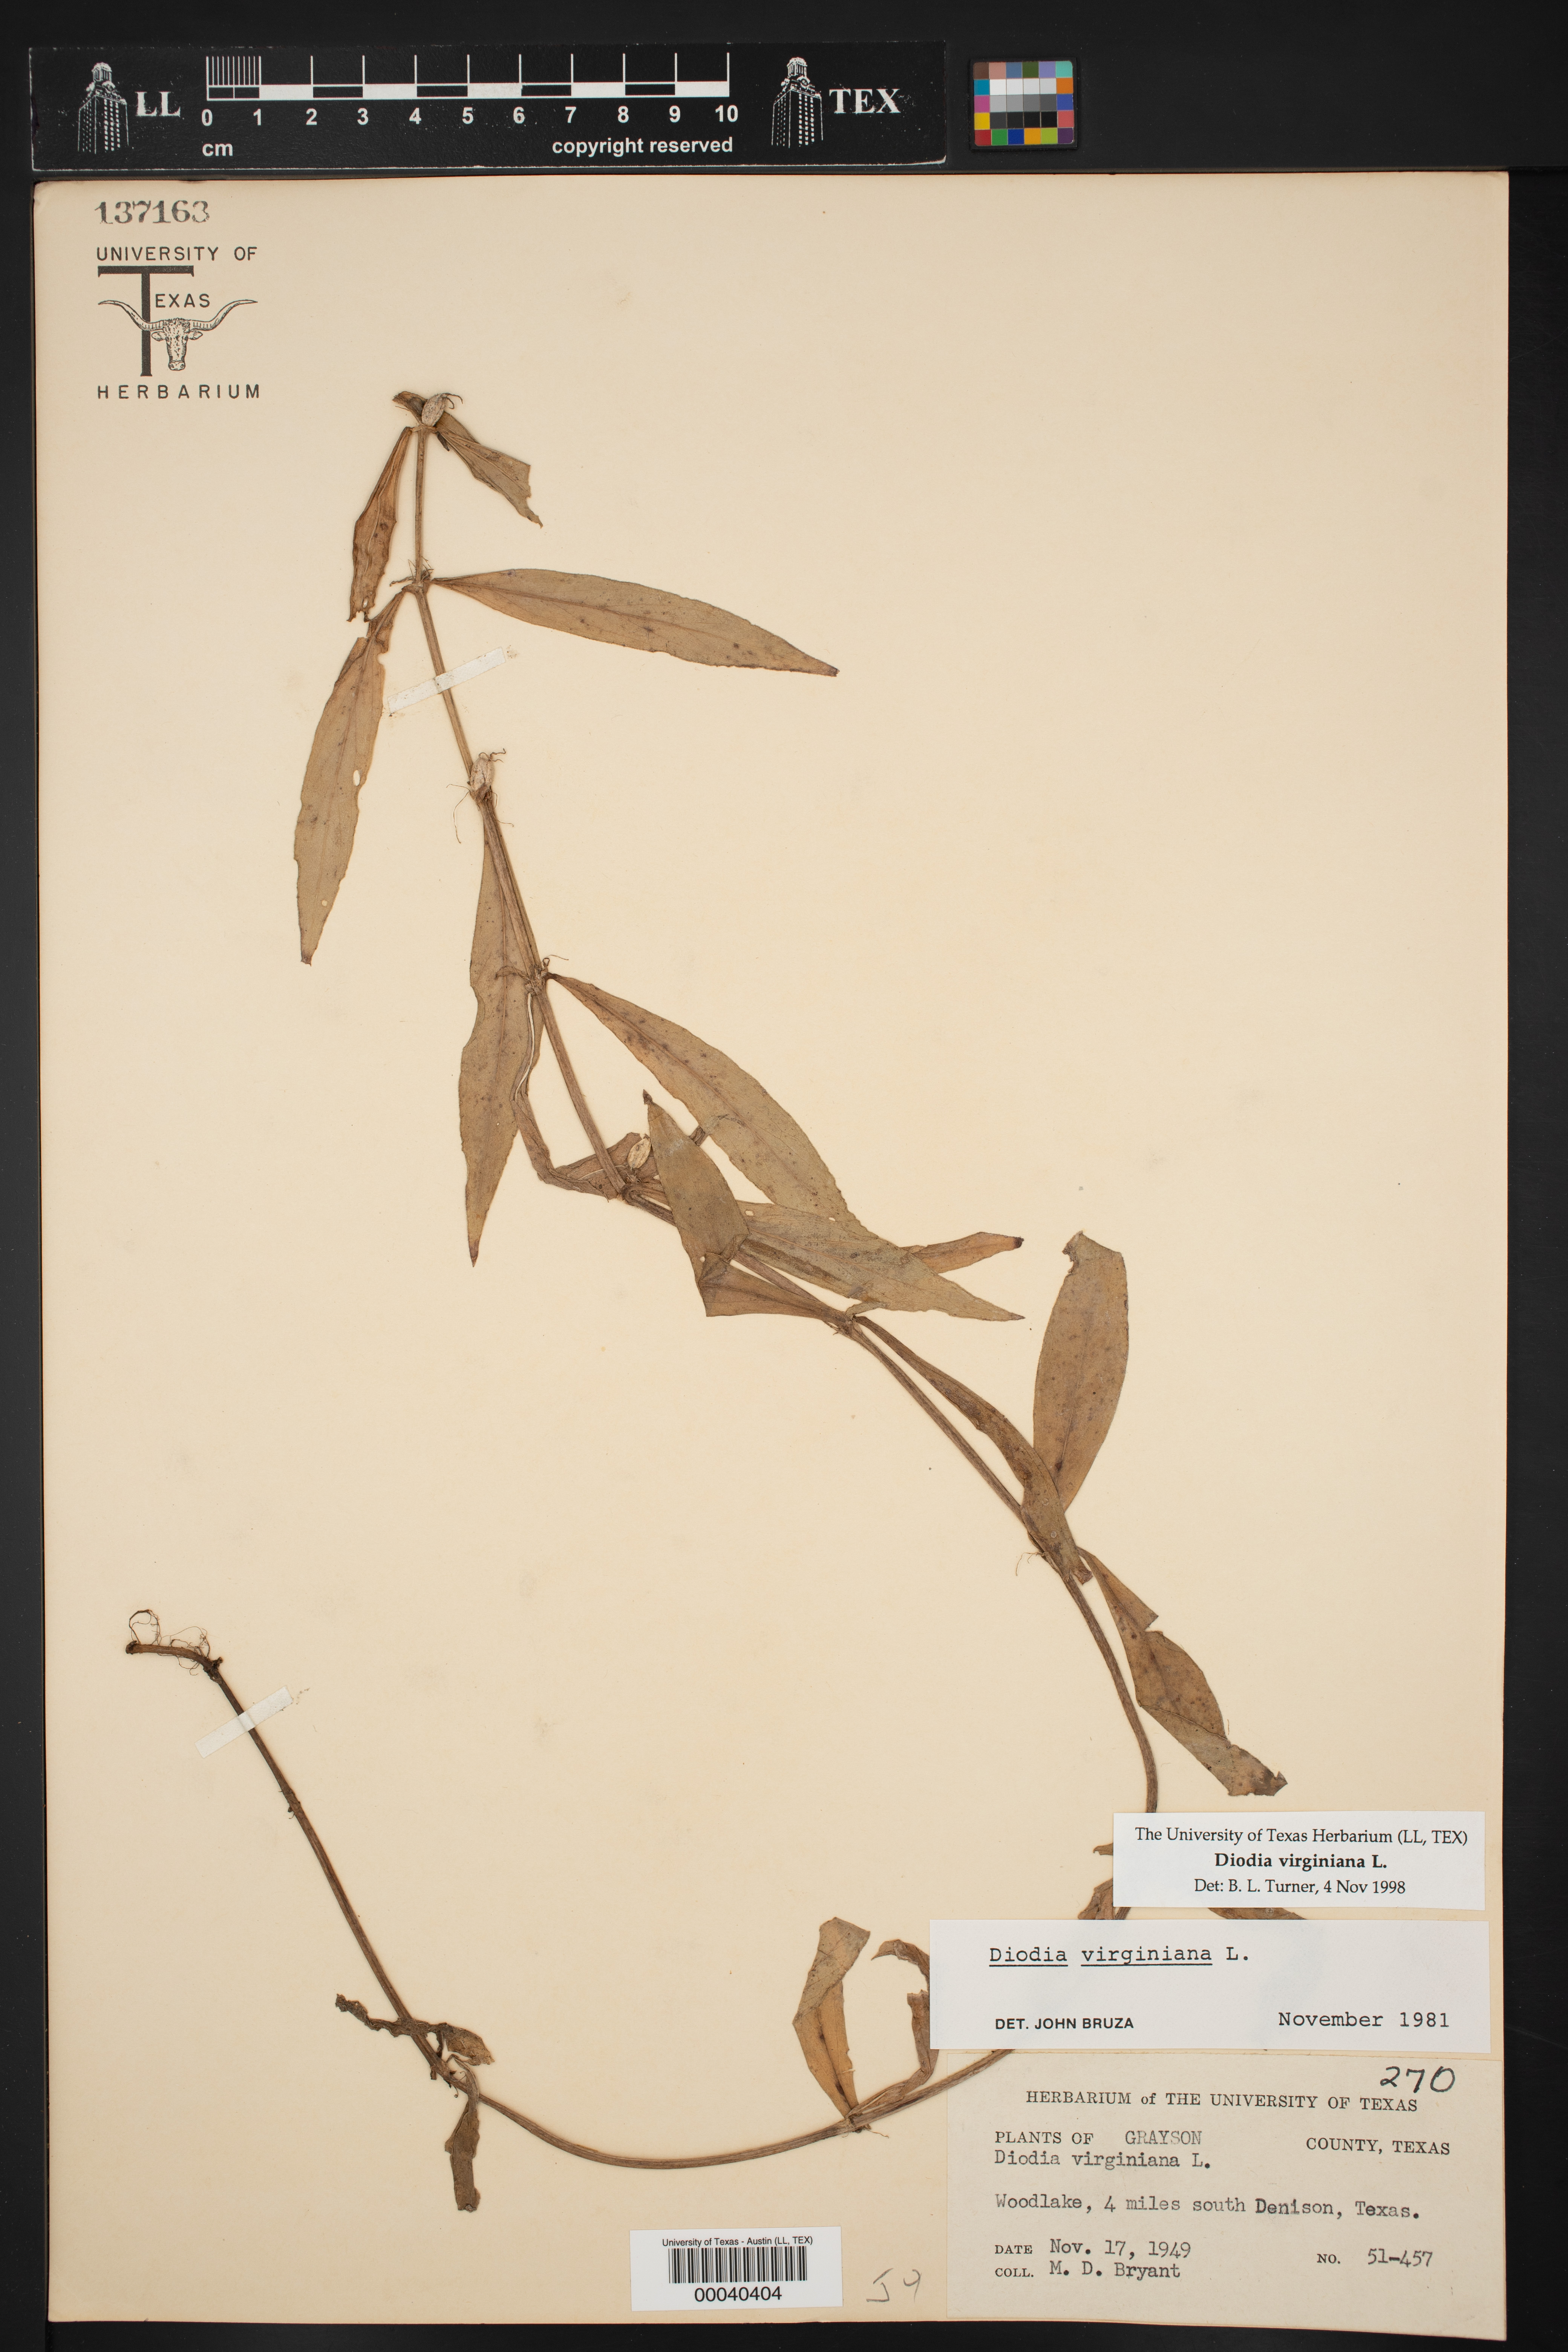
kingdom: Plantae
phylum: Tracheophyta
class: Magnoliopsida
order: Gentianales
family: Rubiaceae
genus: Diodia
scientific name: Diodia virginiana
